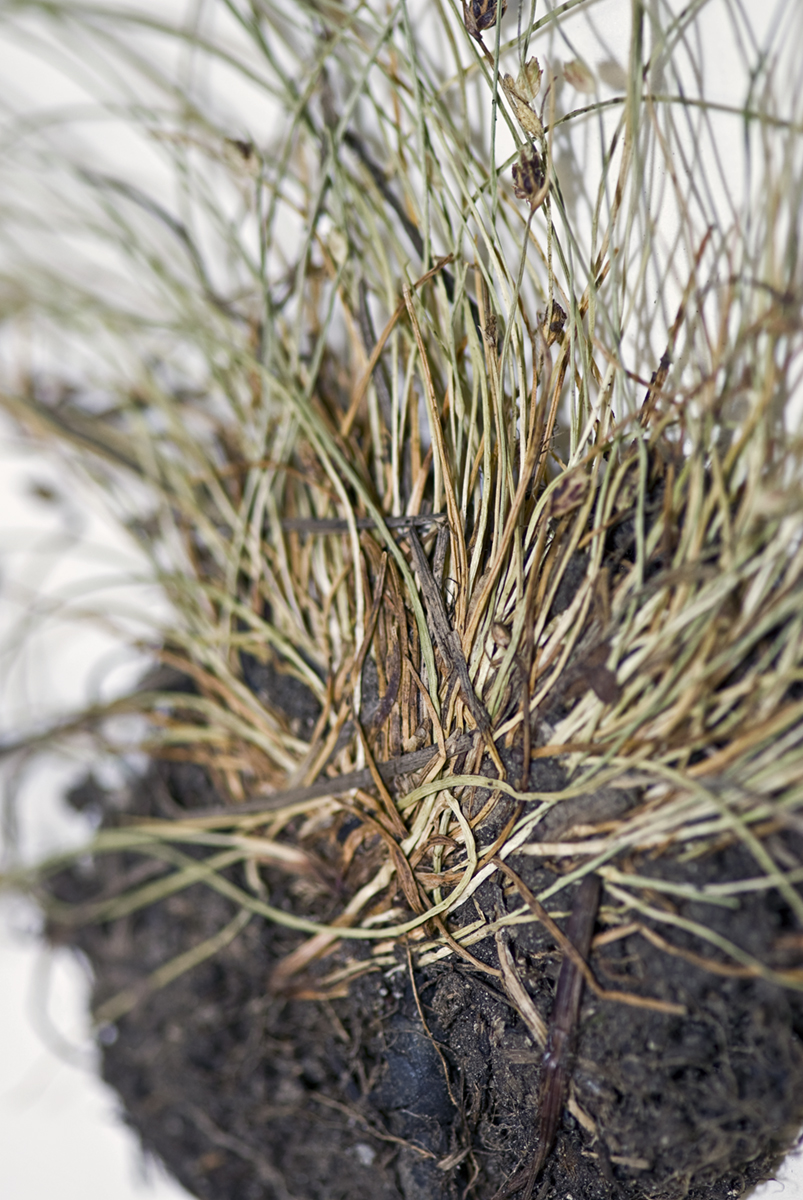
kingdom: Plantae
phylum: Tracheophyta
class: Liliopsida
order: Poales
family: Cyperaceae
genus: Isolepis
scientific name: Isolepis setacea
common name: Bristle club-rush
